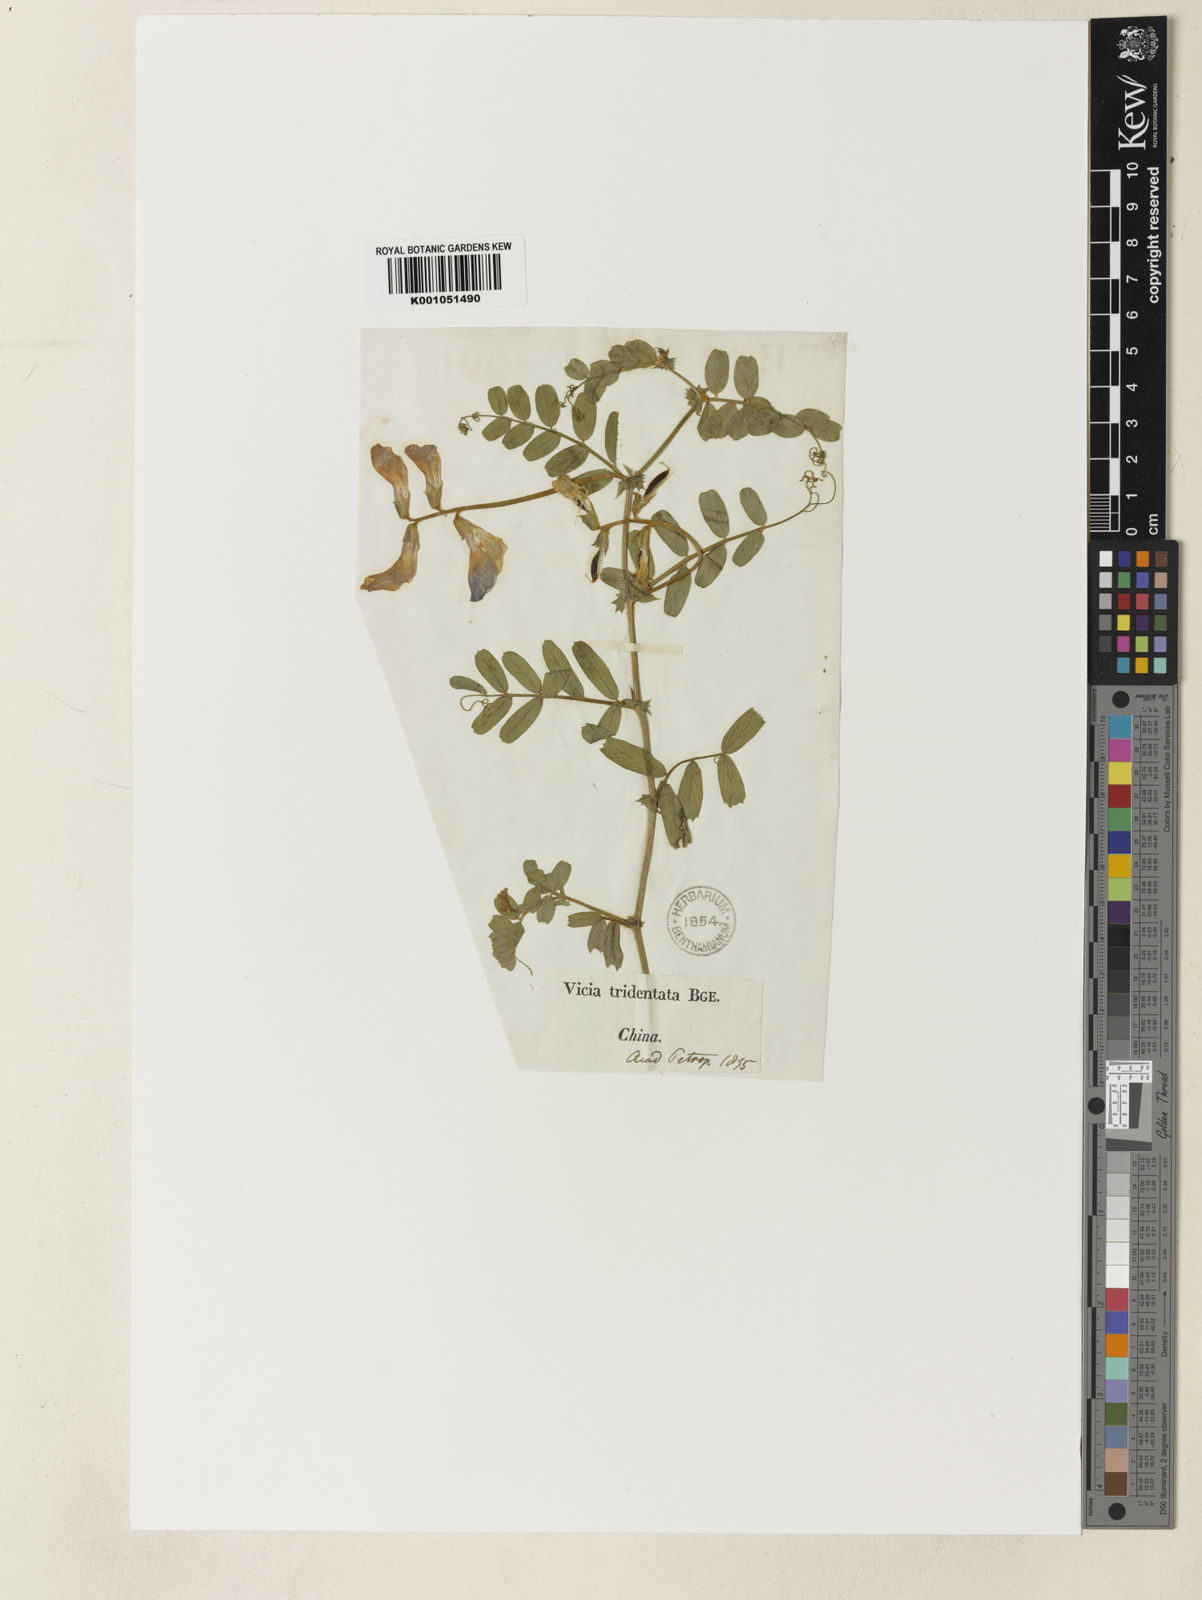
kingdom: Plantae
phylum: Tracheophyta
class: Magnoliopsida
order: Fabales
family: Fabaceae
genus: Vicia
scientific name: Vicia bungei
